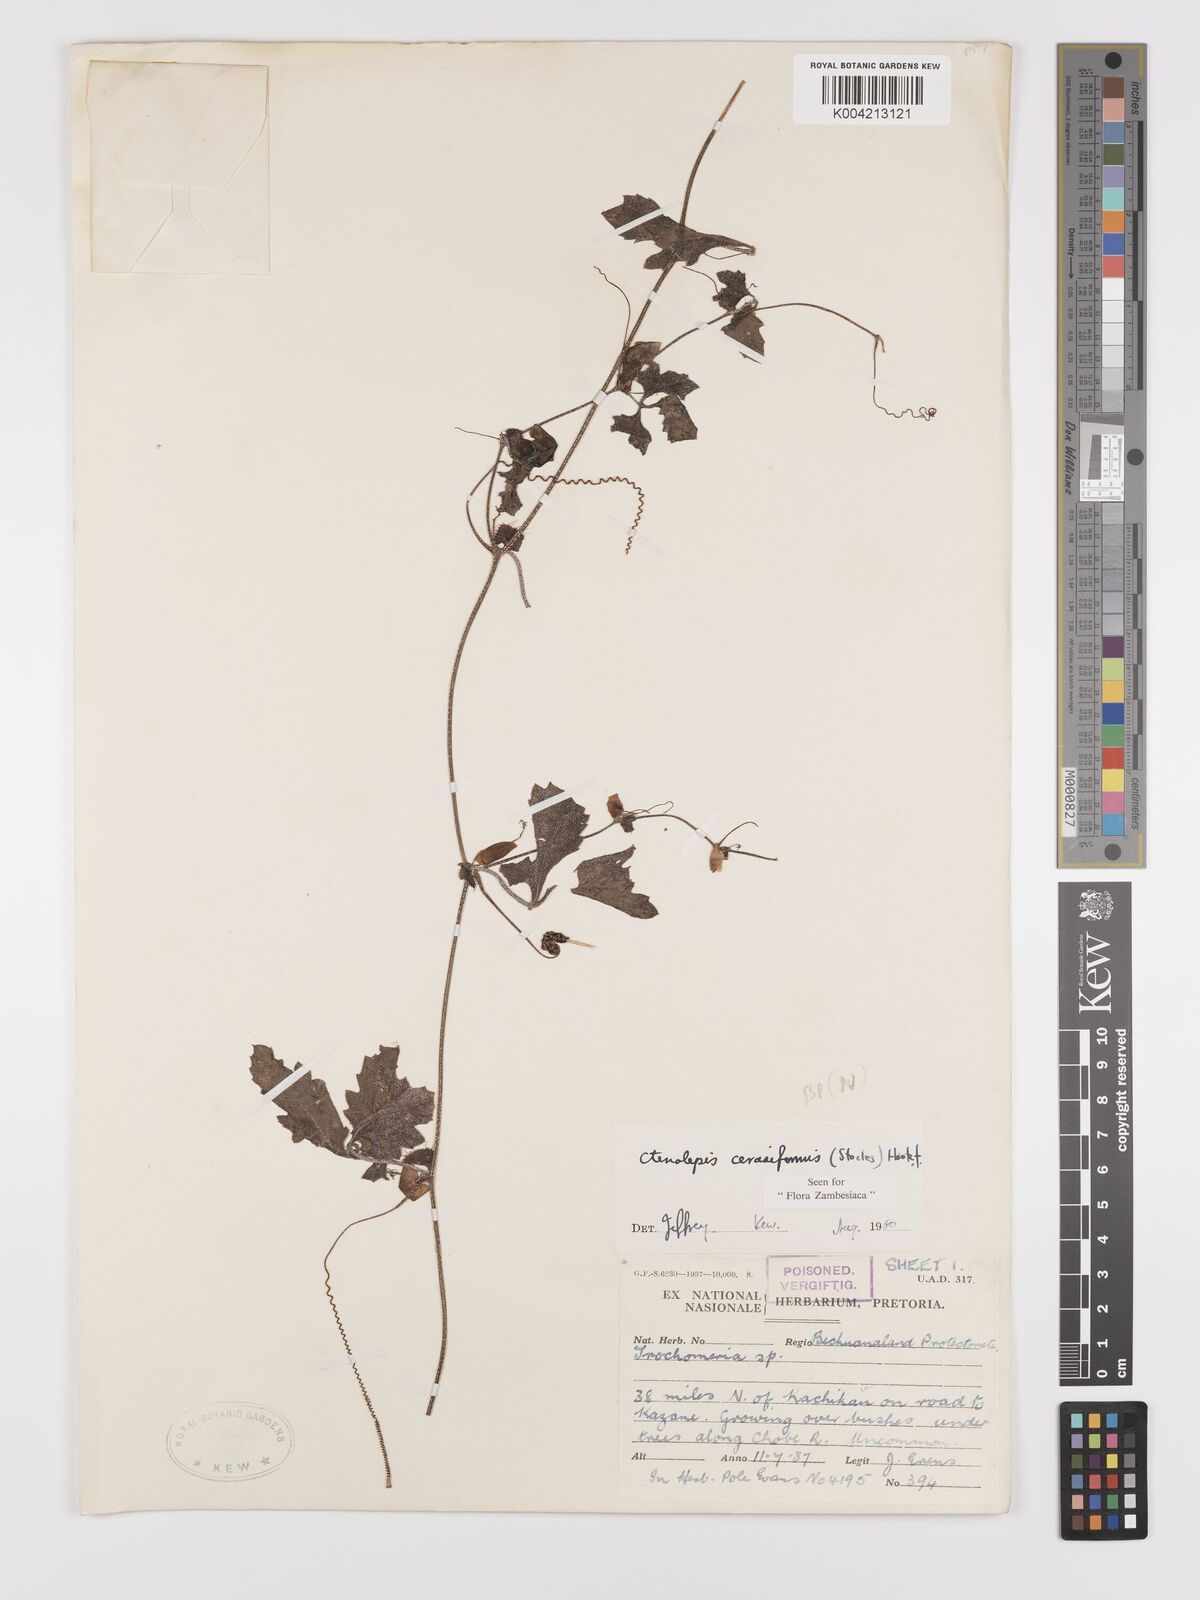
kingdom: Plantae
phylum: Tracheophyta
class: Magnoliopsida
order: Cucurbitales
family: Cucurbitaceae
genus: Blastania
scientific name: Blastania cerasiformis
